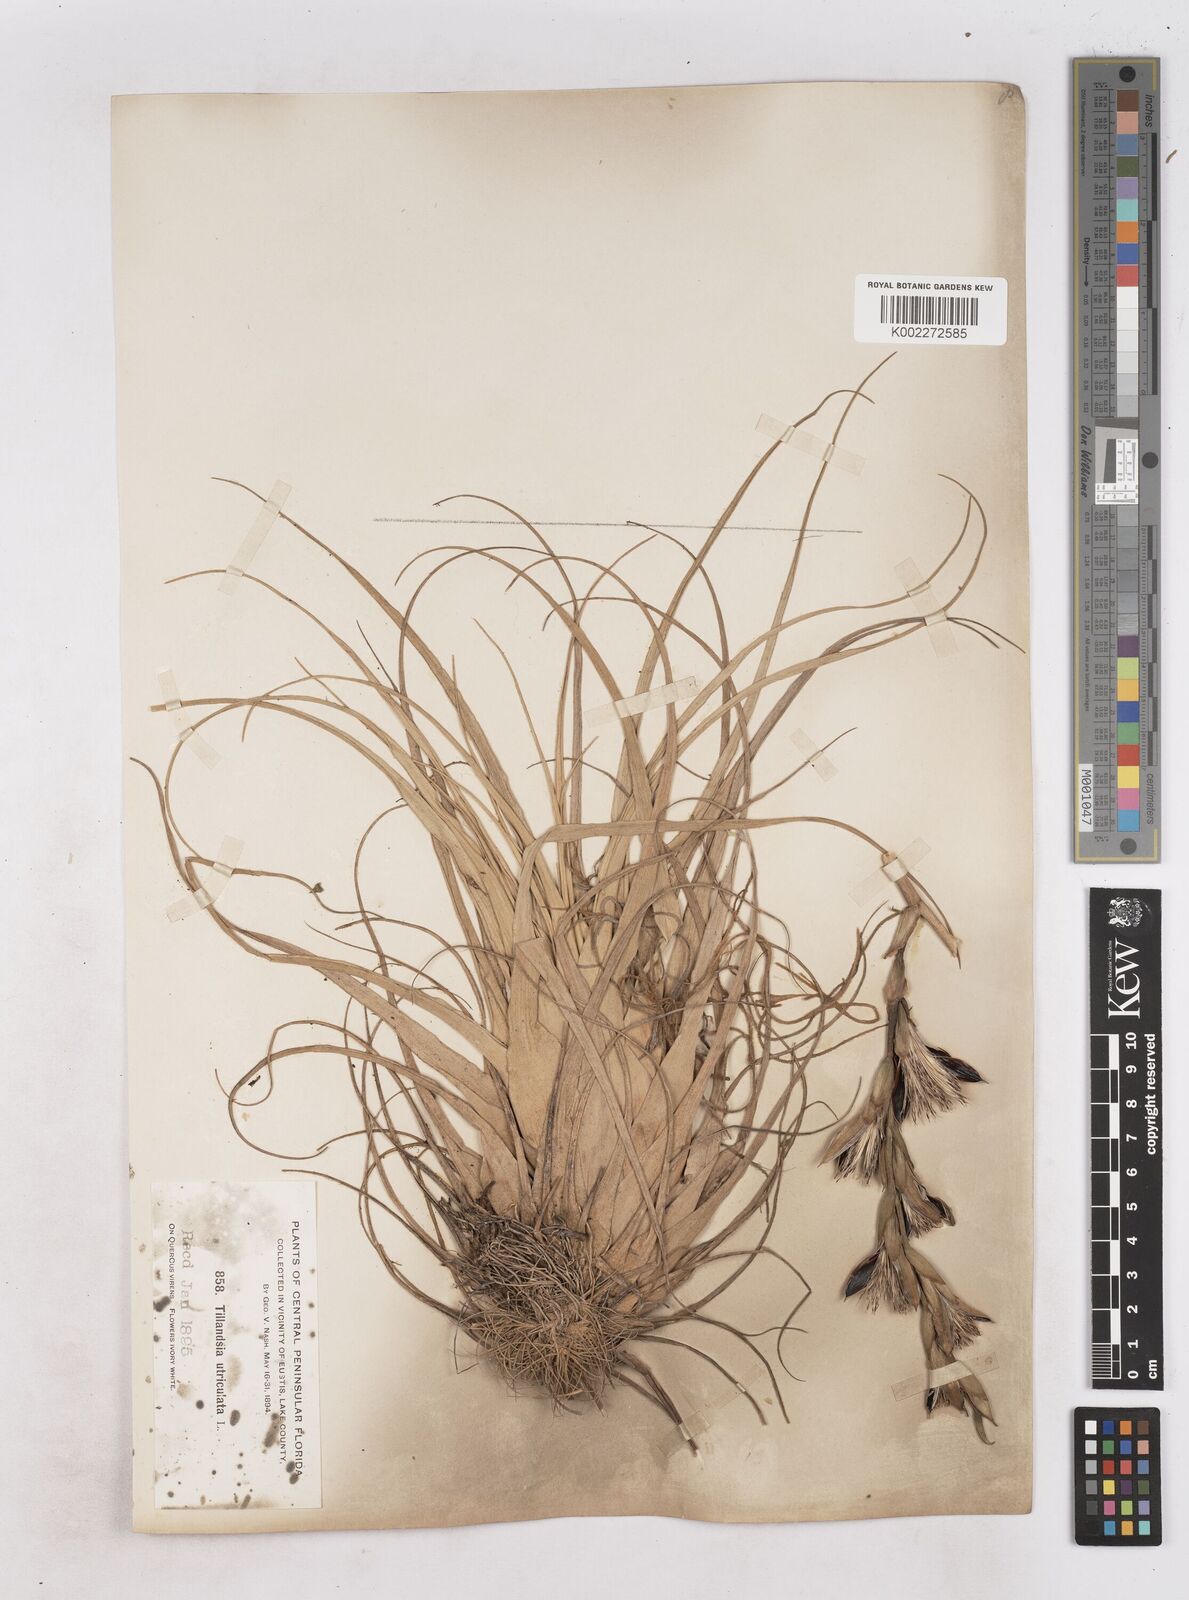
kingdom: Plantae
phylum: Tracheophyta
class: Liliopsida
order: Poales
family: Bromeliaceae
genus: Tillandsia
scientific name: Tillandsia utriculata
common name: Wild pine
